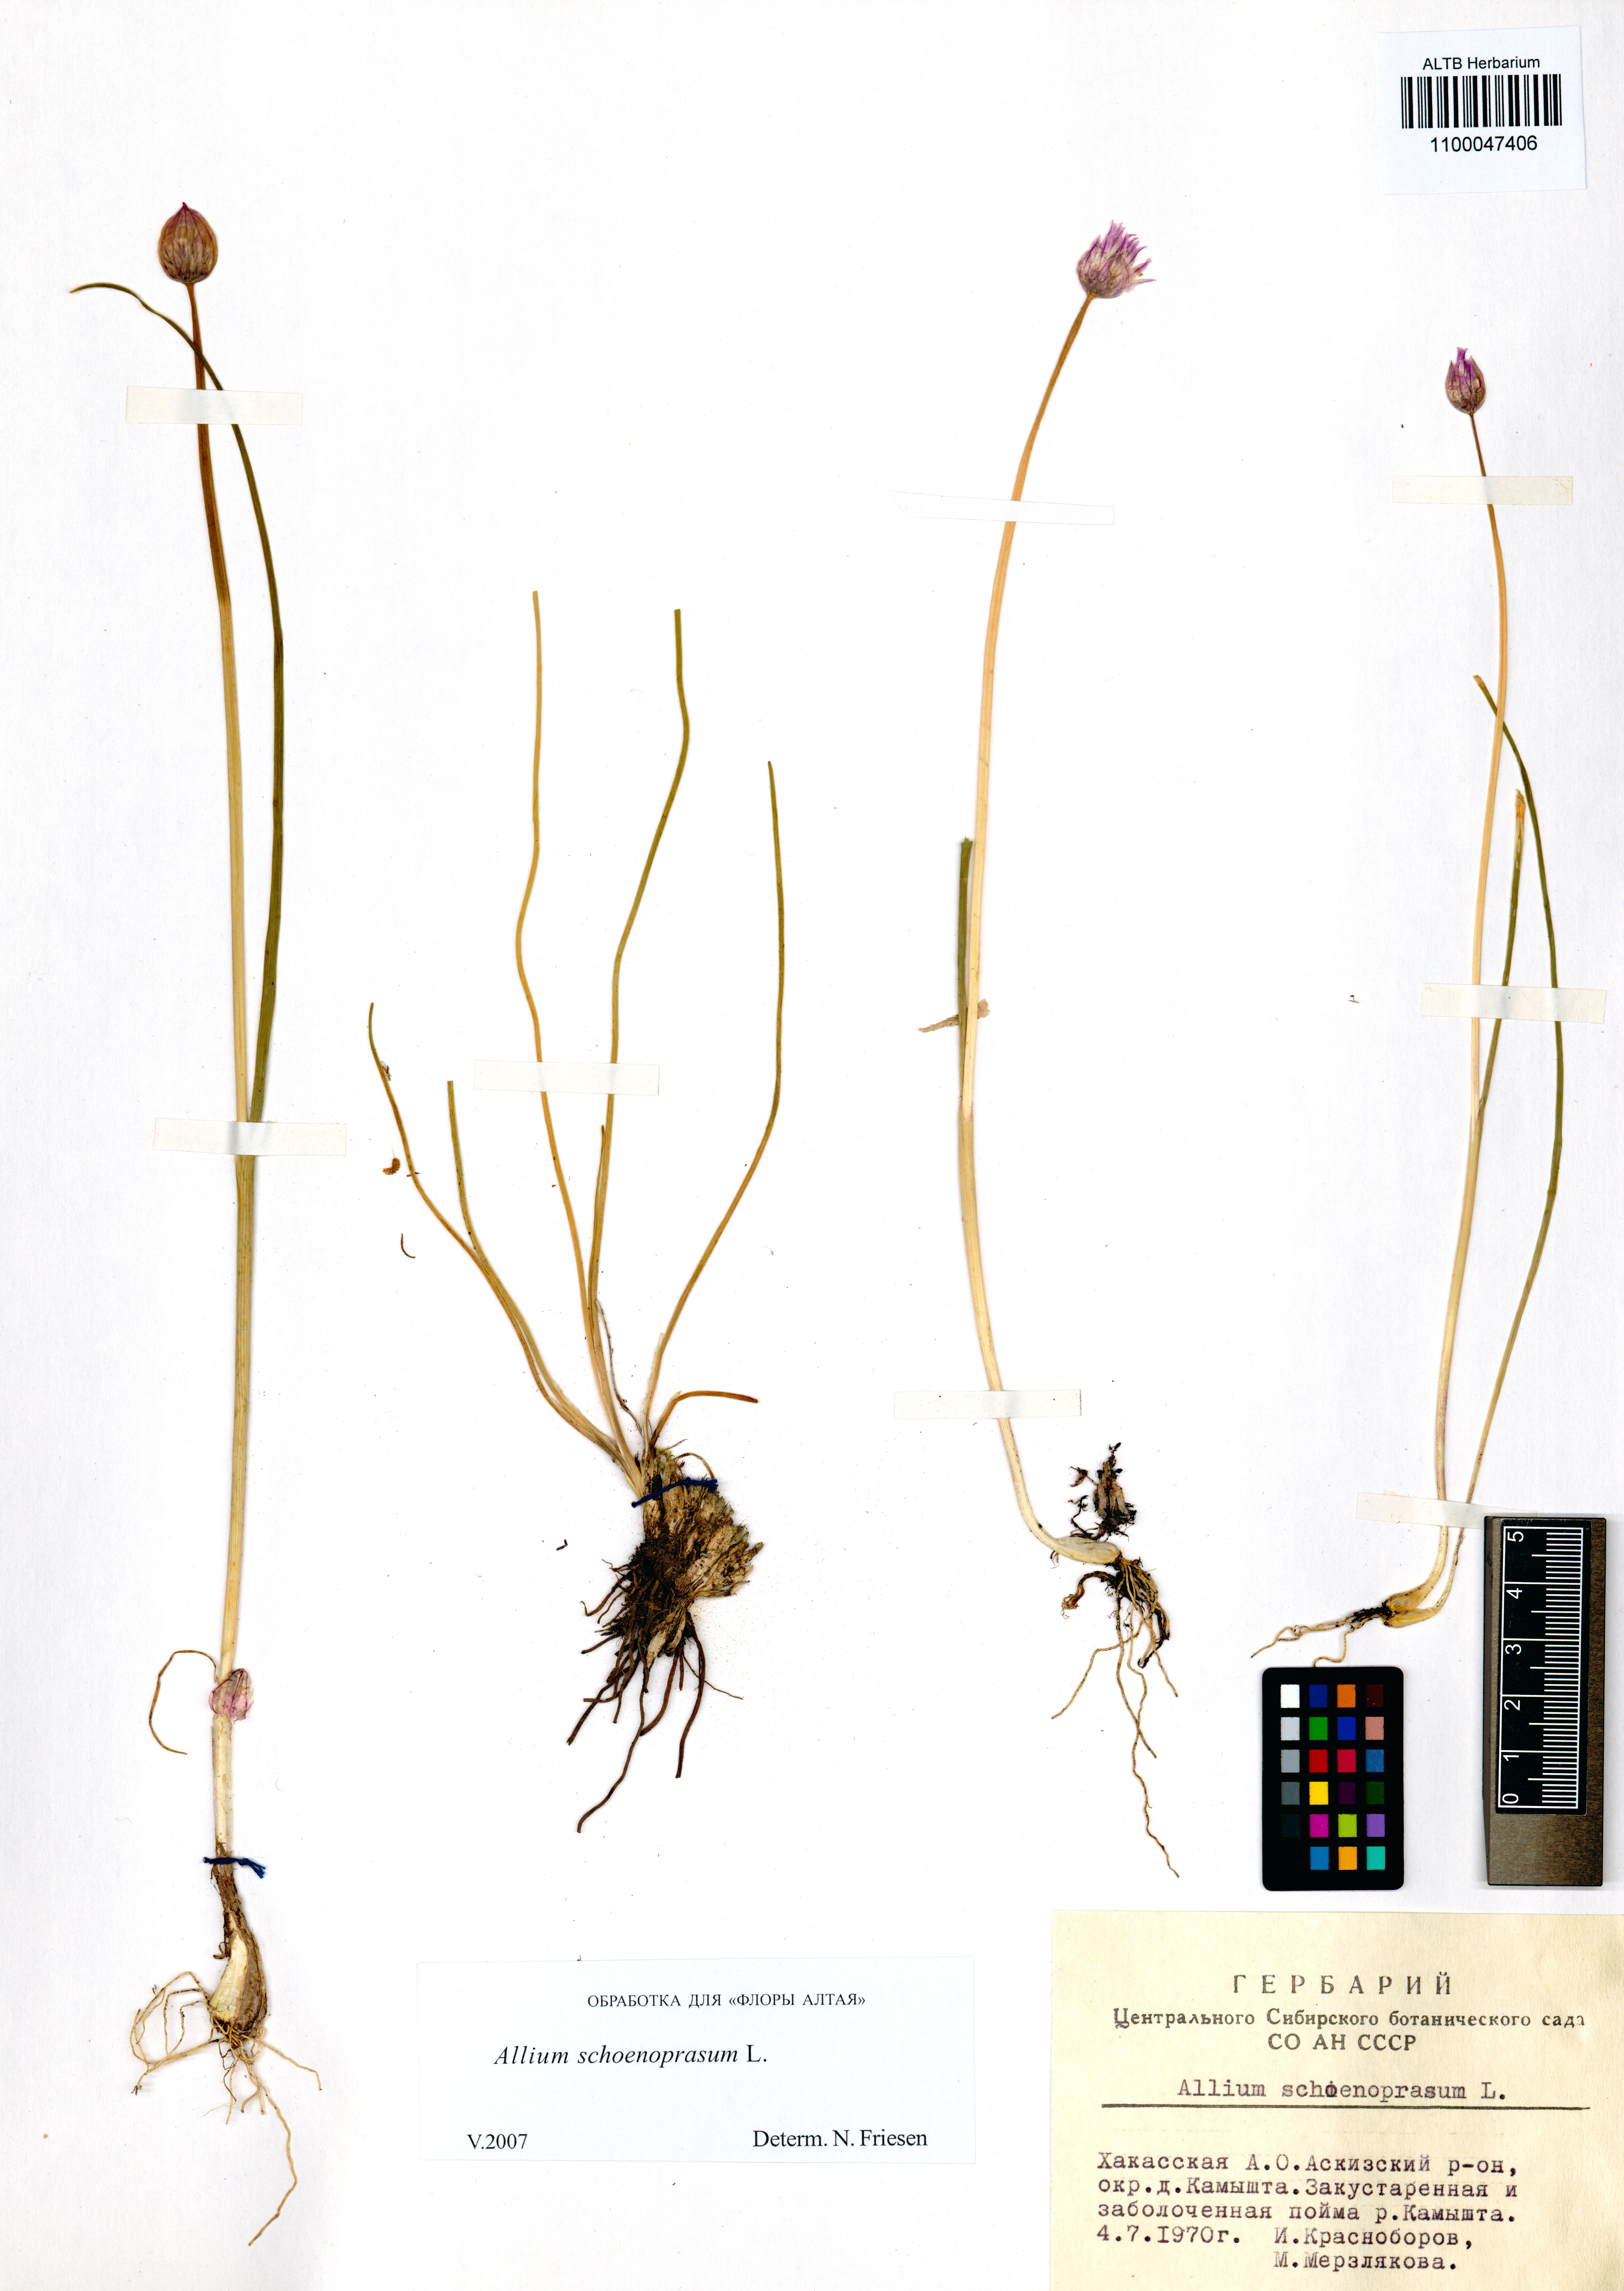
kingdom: Plantae
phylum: Tracheophyta
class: Liliopsida
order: Asparagales
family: Amaryllidaceae
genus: Allium
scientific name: Allium schoenoprasum
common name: Chives
